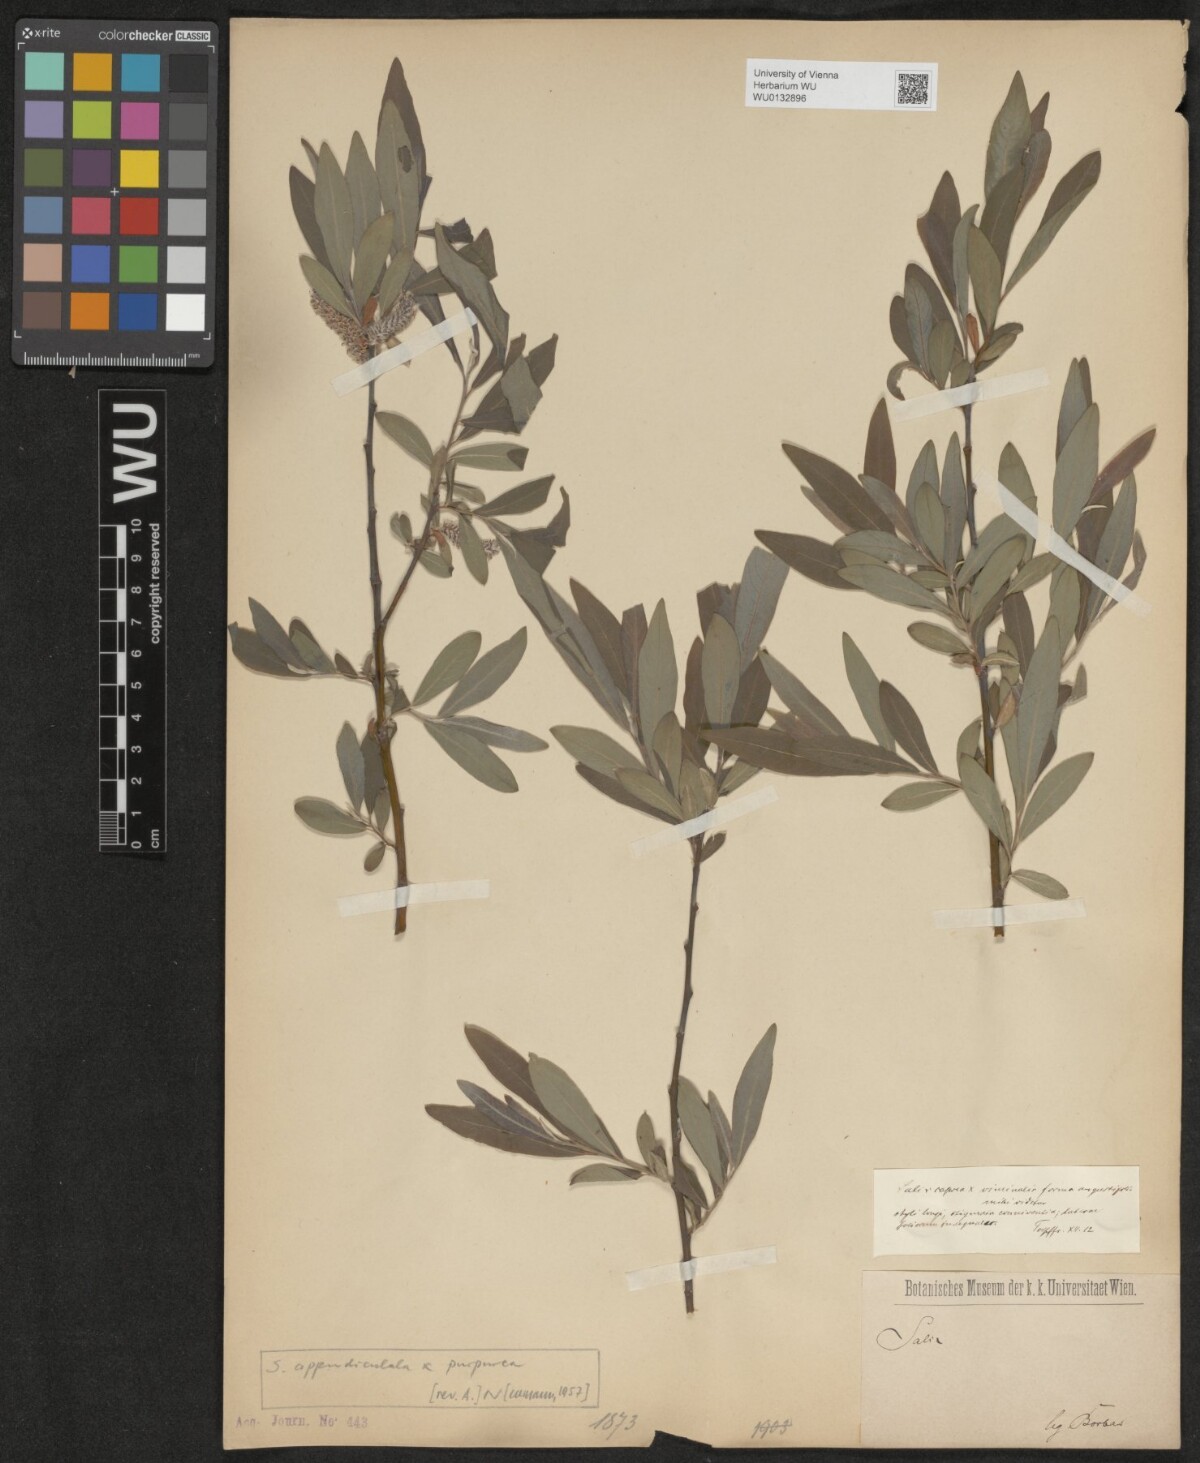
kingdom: Plantae
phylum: Tracheophyta
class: Magnoliopsida
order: Malpighiales
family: Salicaceae
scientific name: Salicaceae
